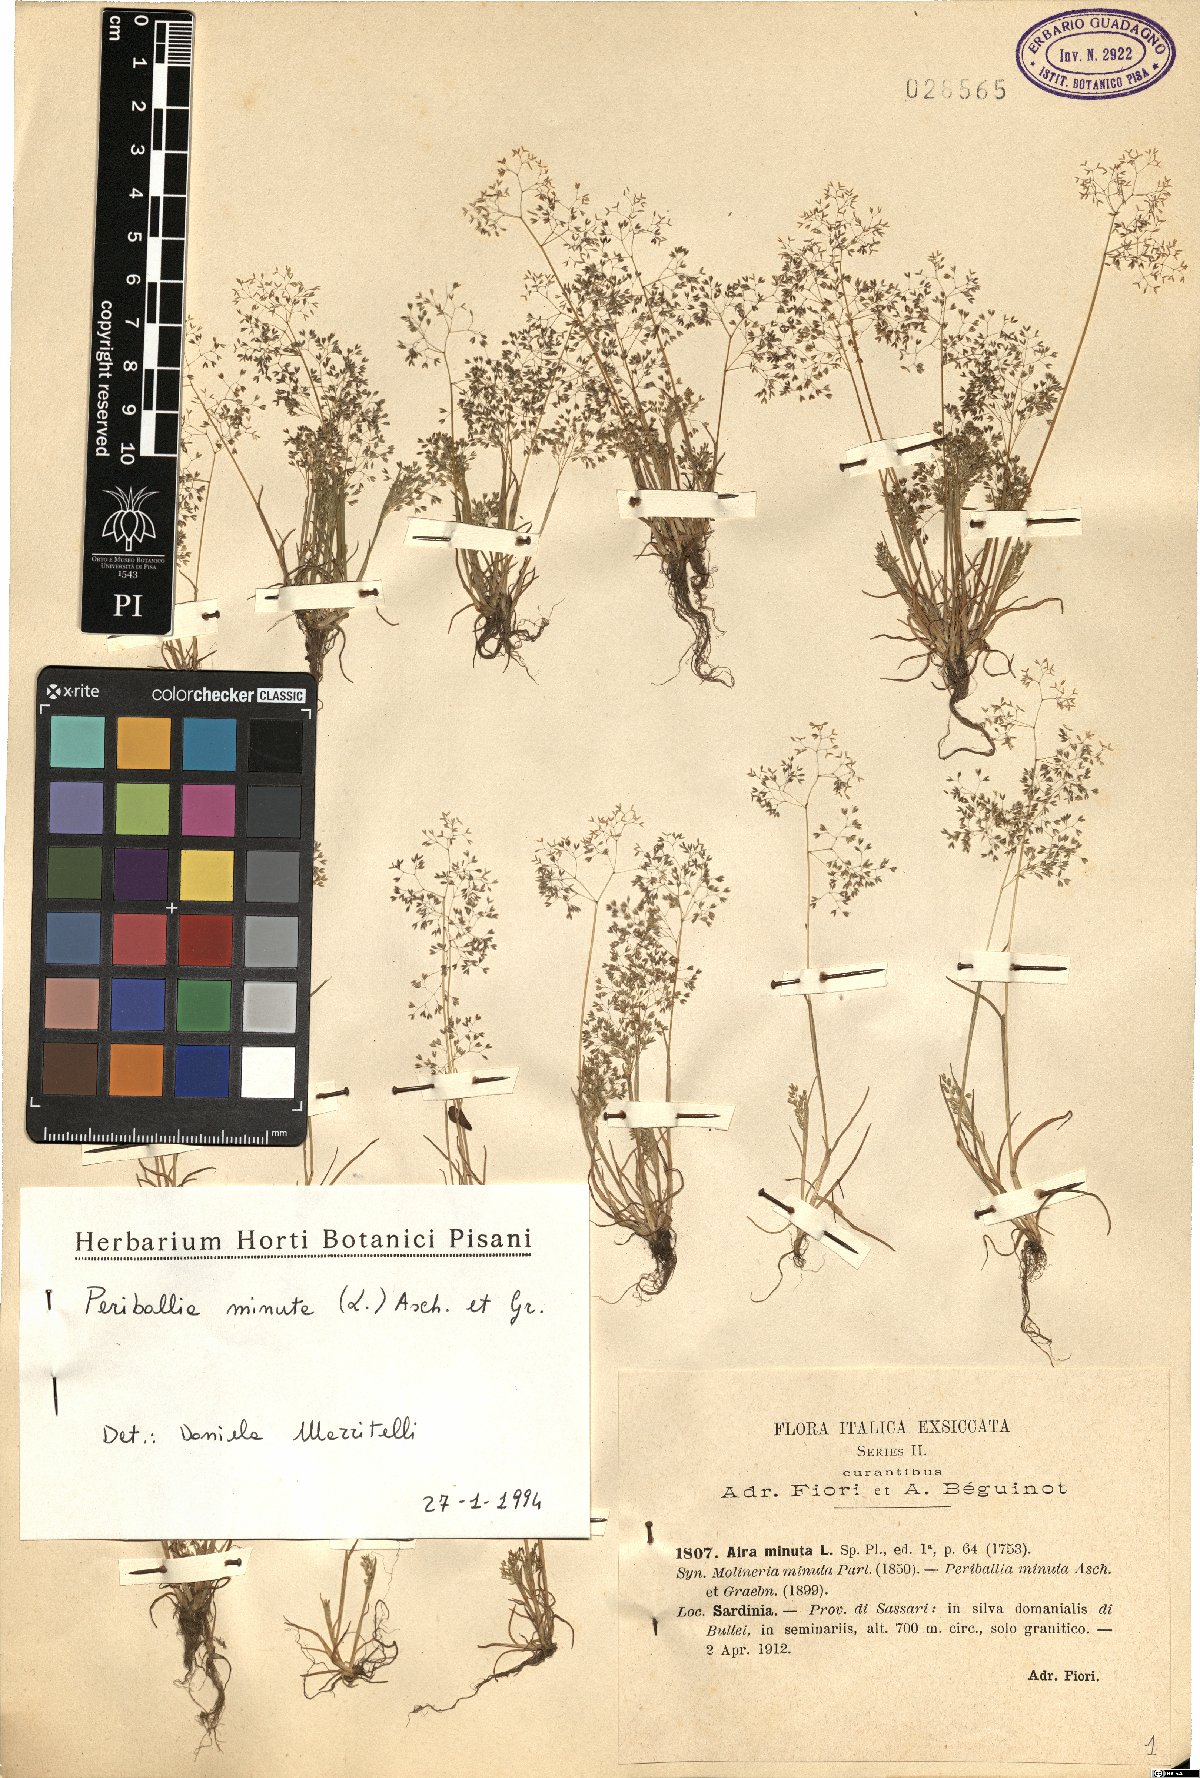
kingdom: Plantae
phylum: Tracheophyta
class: Liliopsida
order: Poales
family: Poaceae
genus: Molineriella
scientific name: Molineriella minuta
